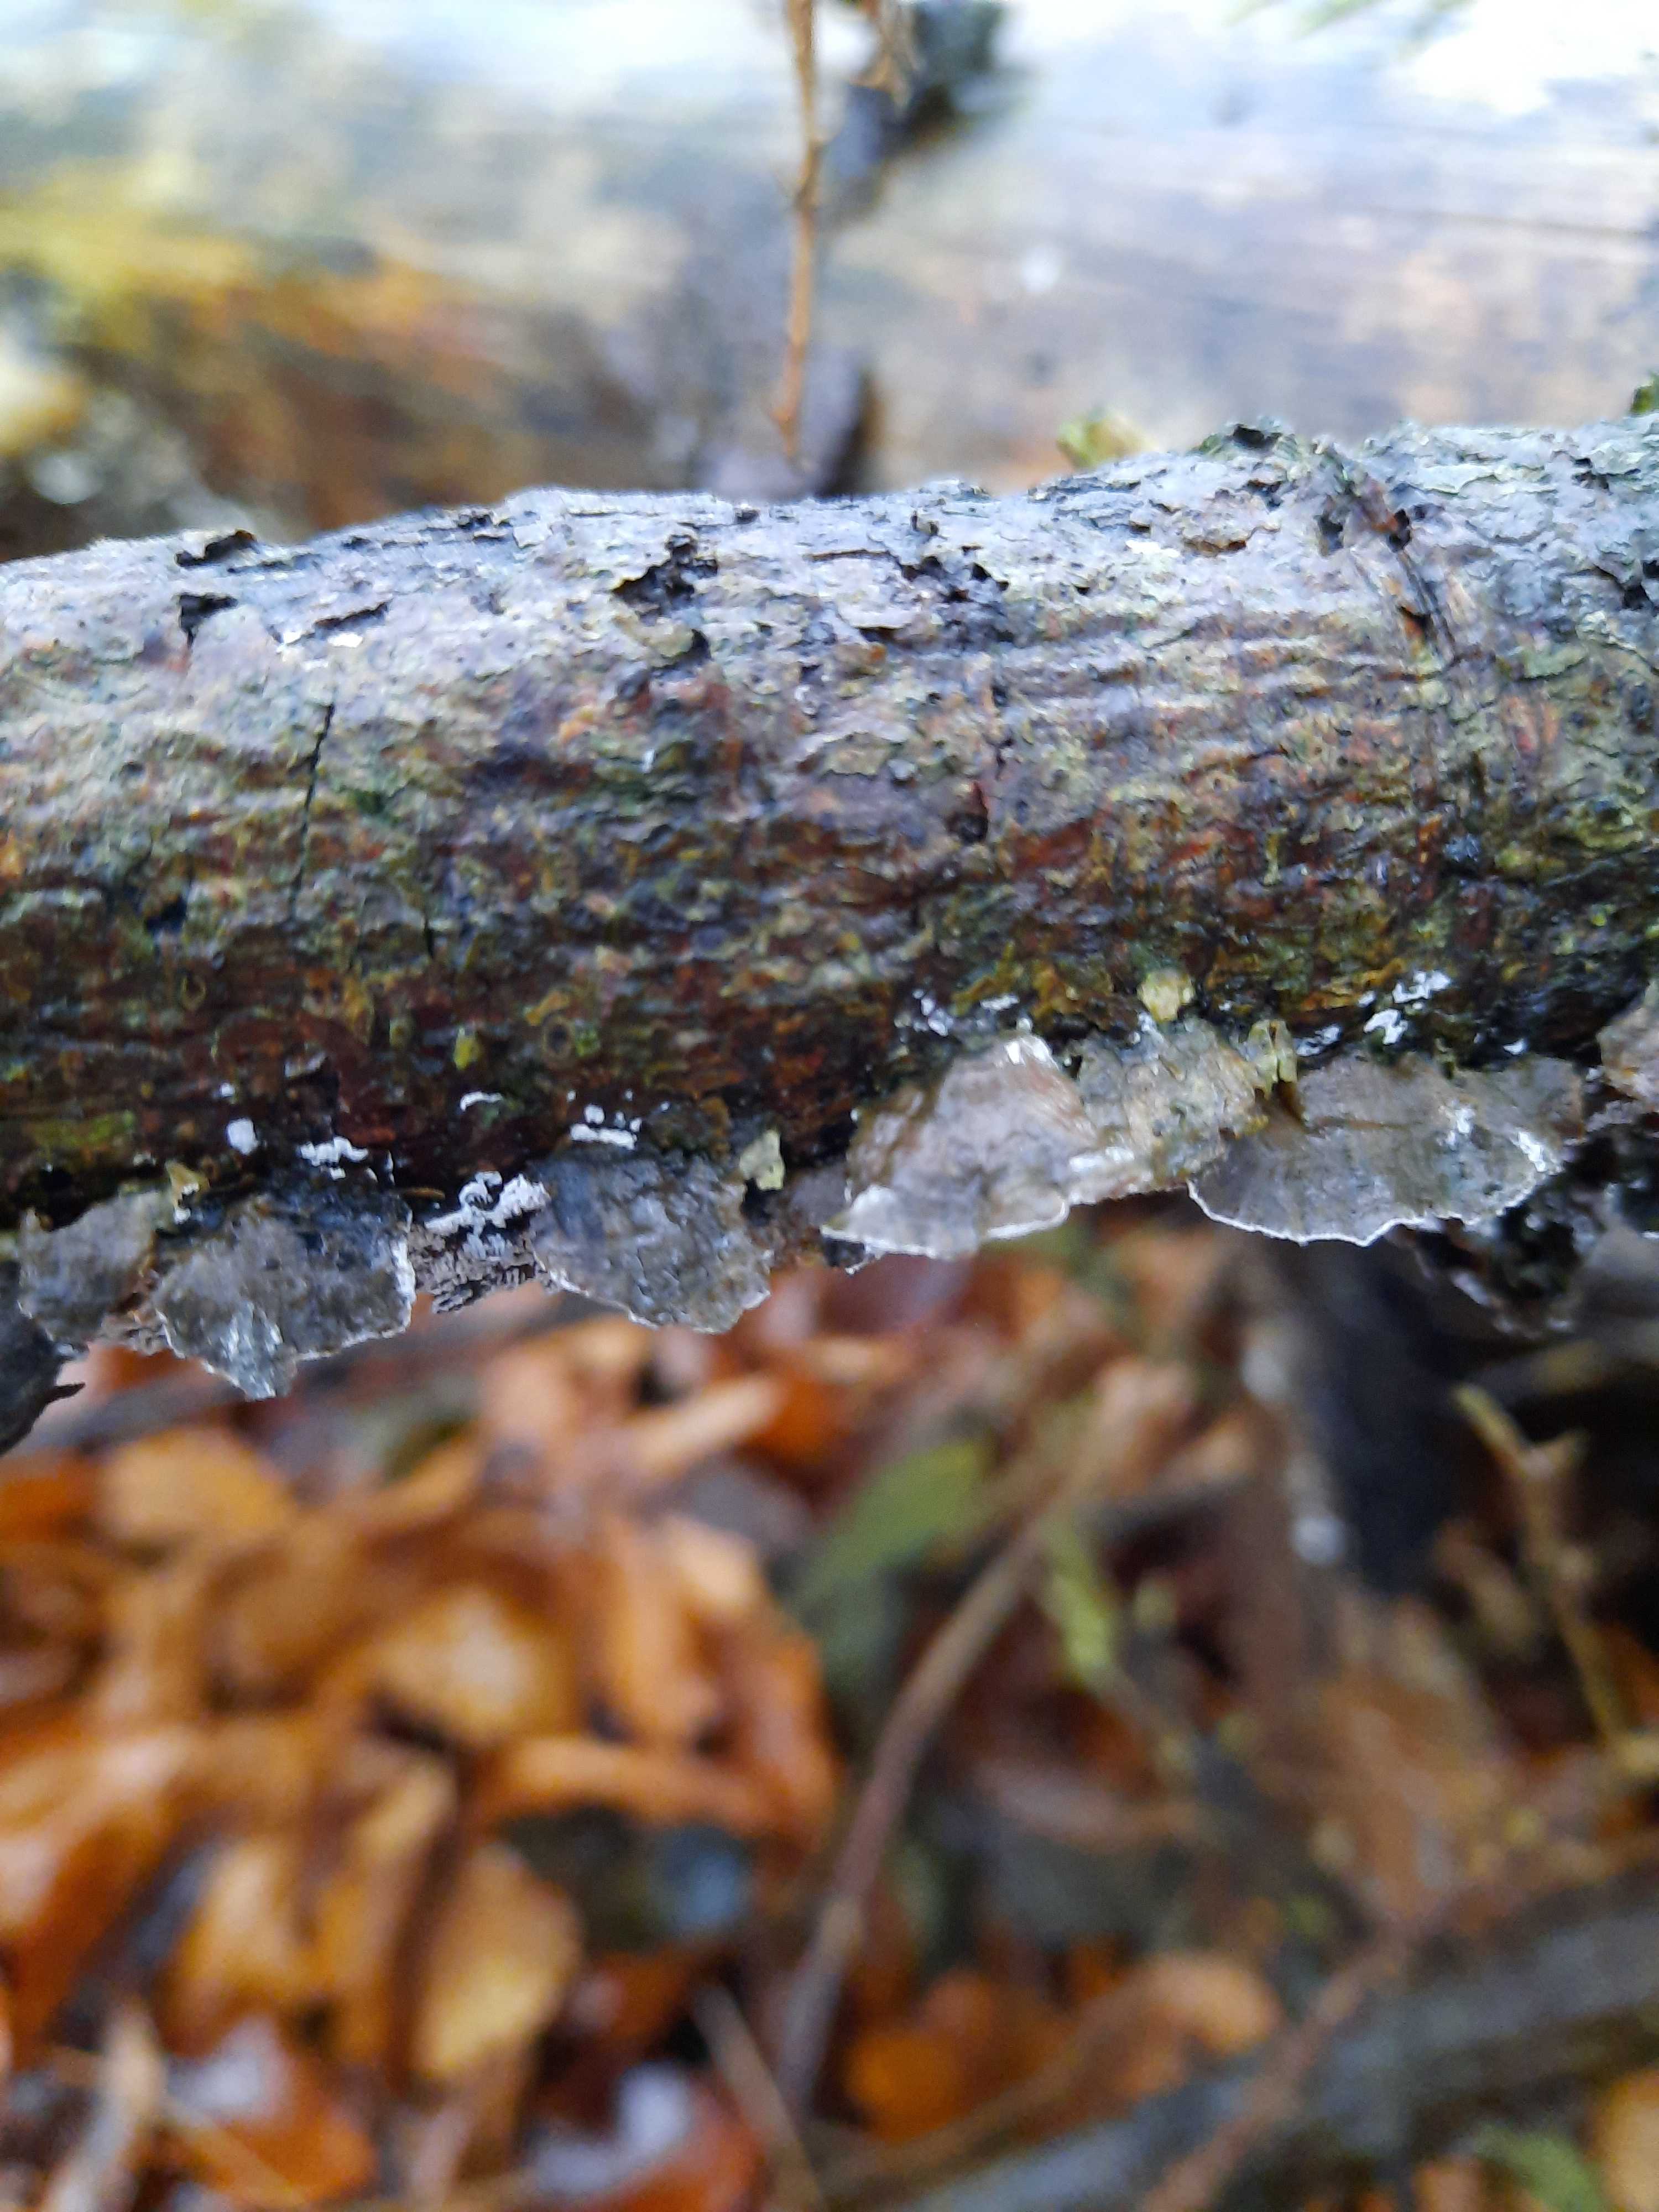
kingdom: Fungi
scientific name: Fungi
